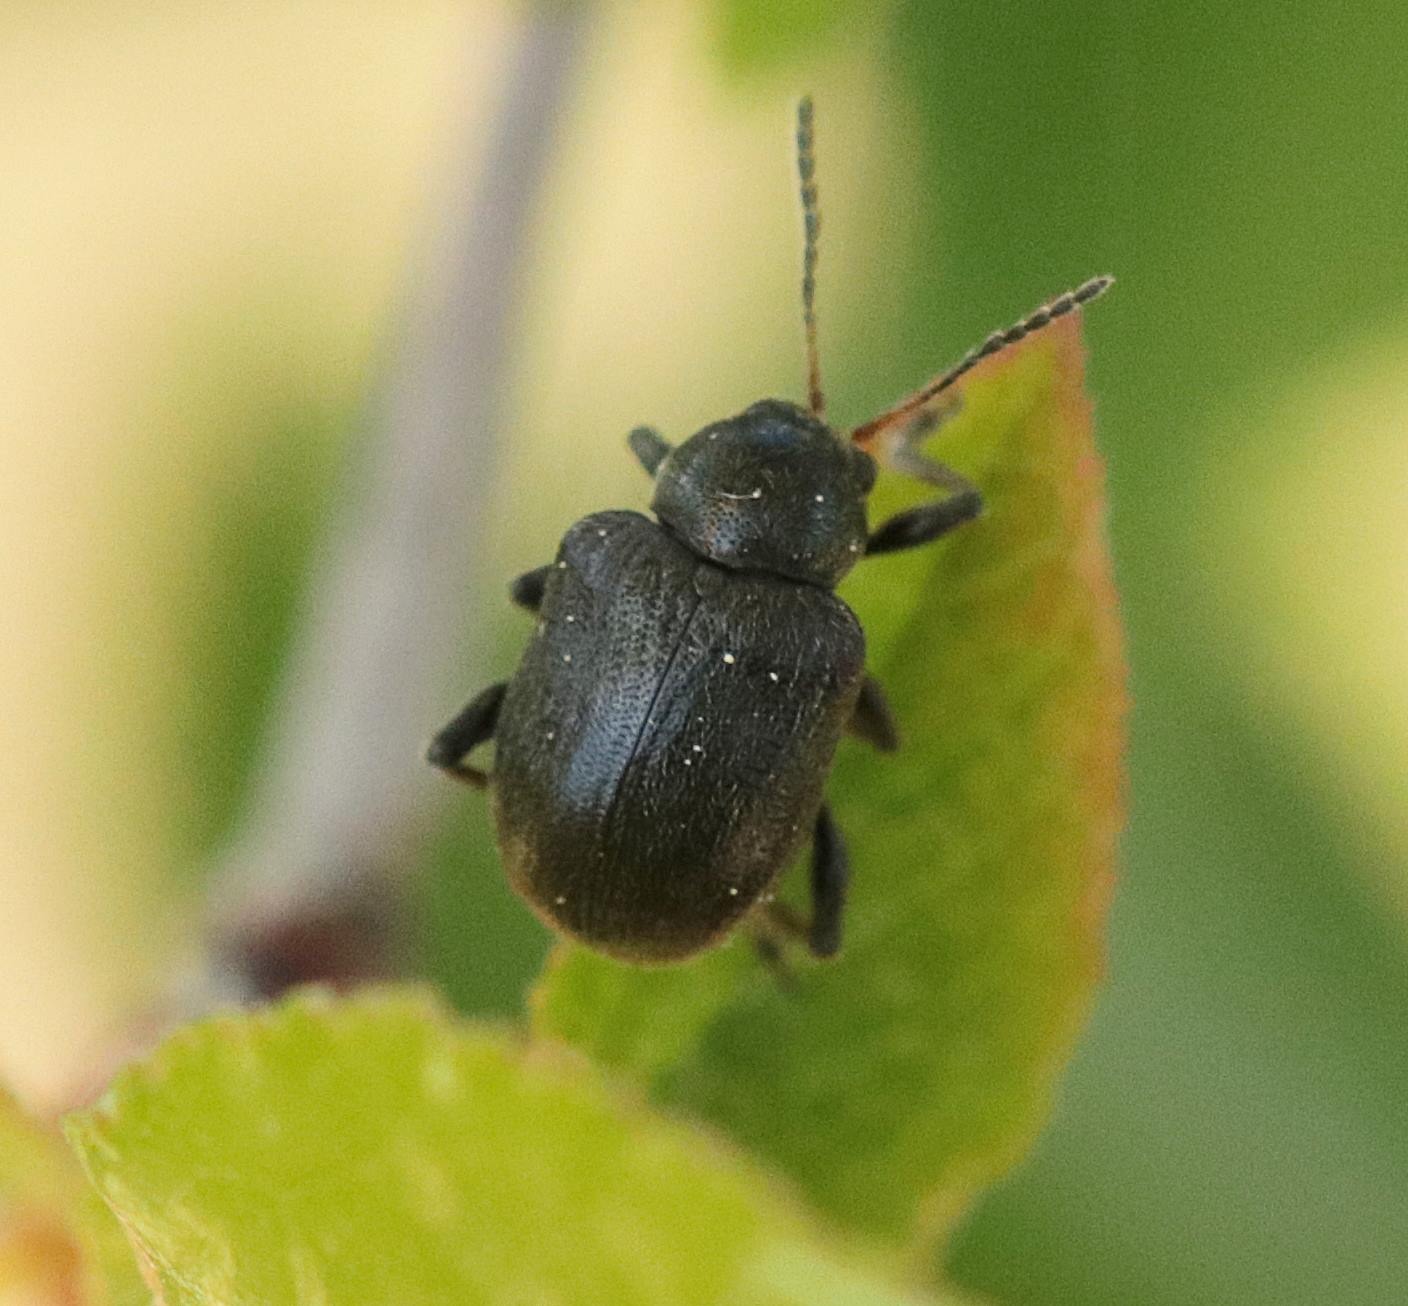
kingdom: Animalia
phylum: Arthropoda
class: Insecta
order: Coleoptera
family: Chrysomelidae
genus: Bromius
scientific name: Bromius obscurus
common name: Gederamsbille
